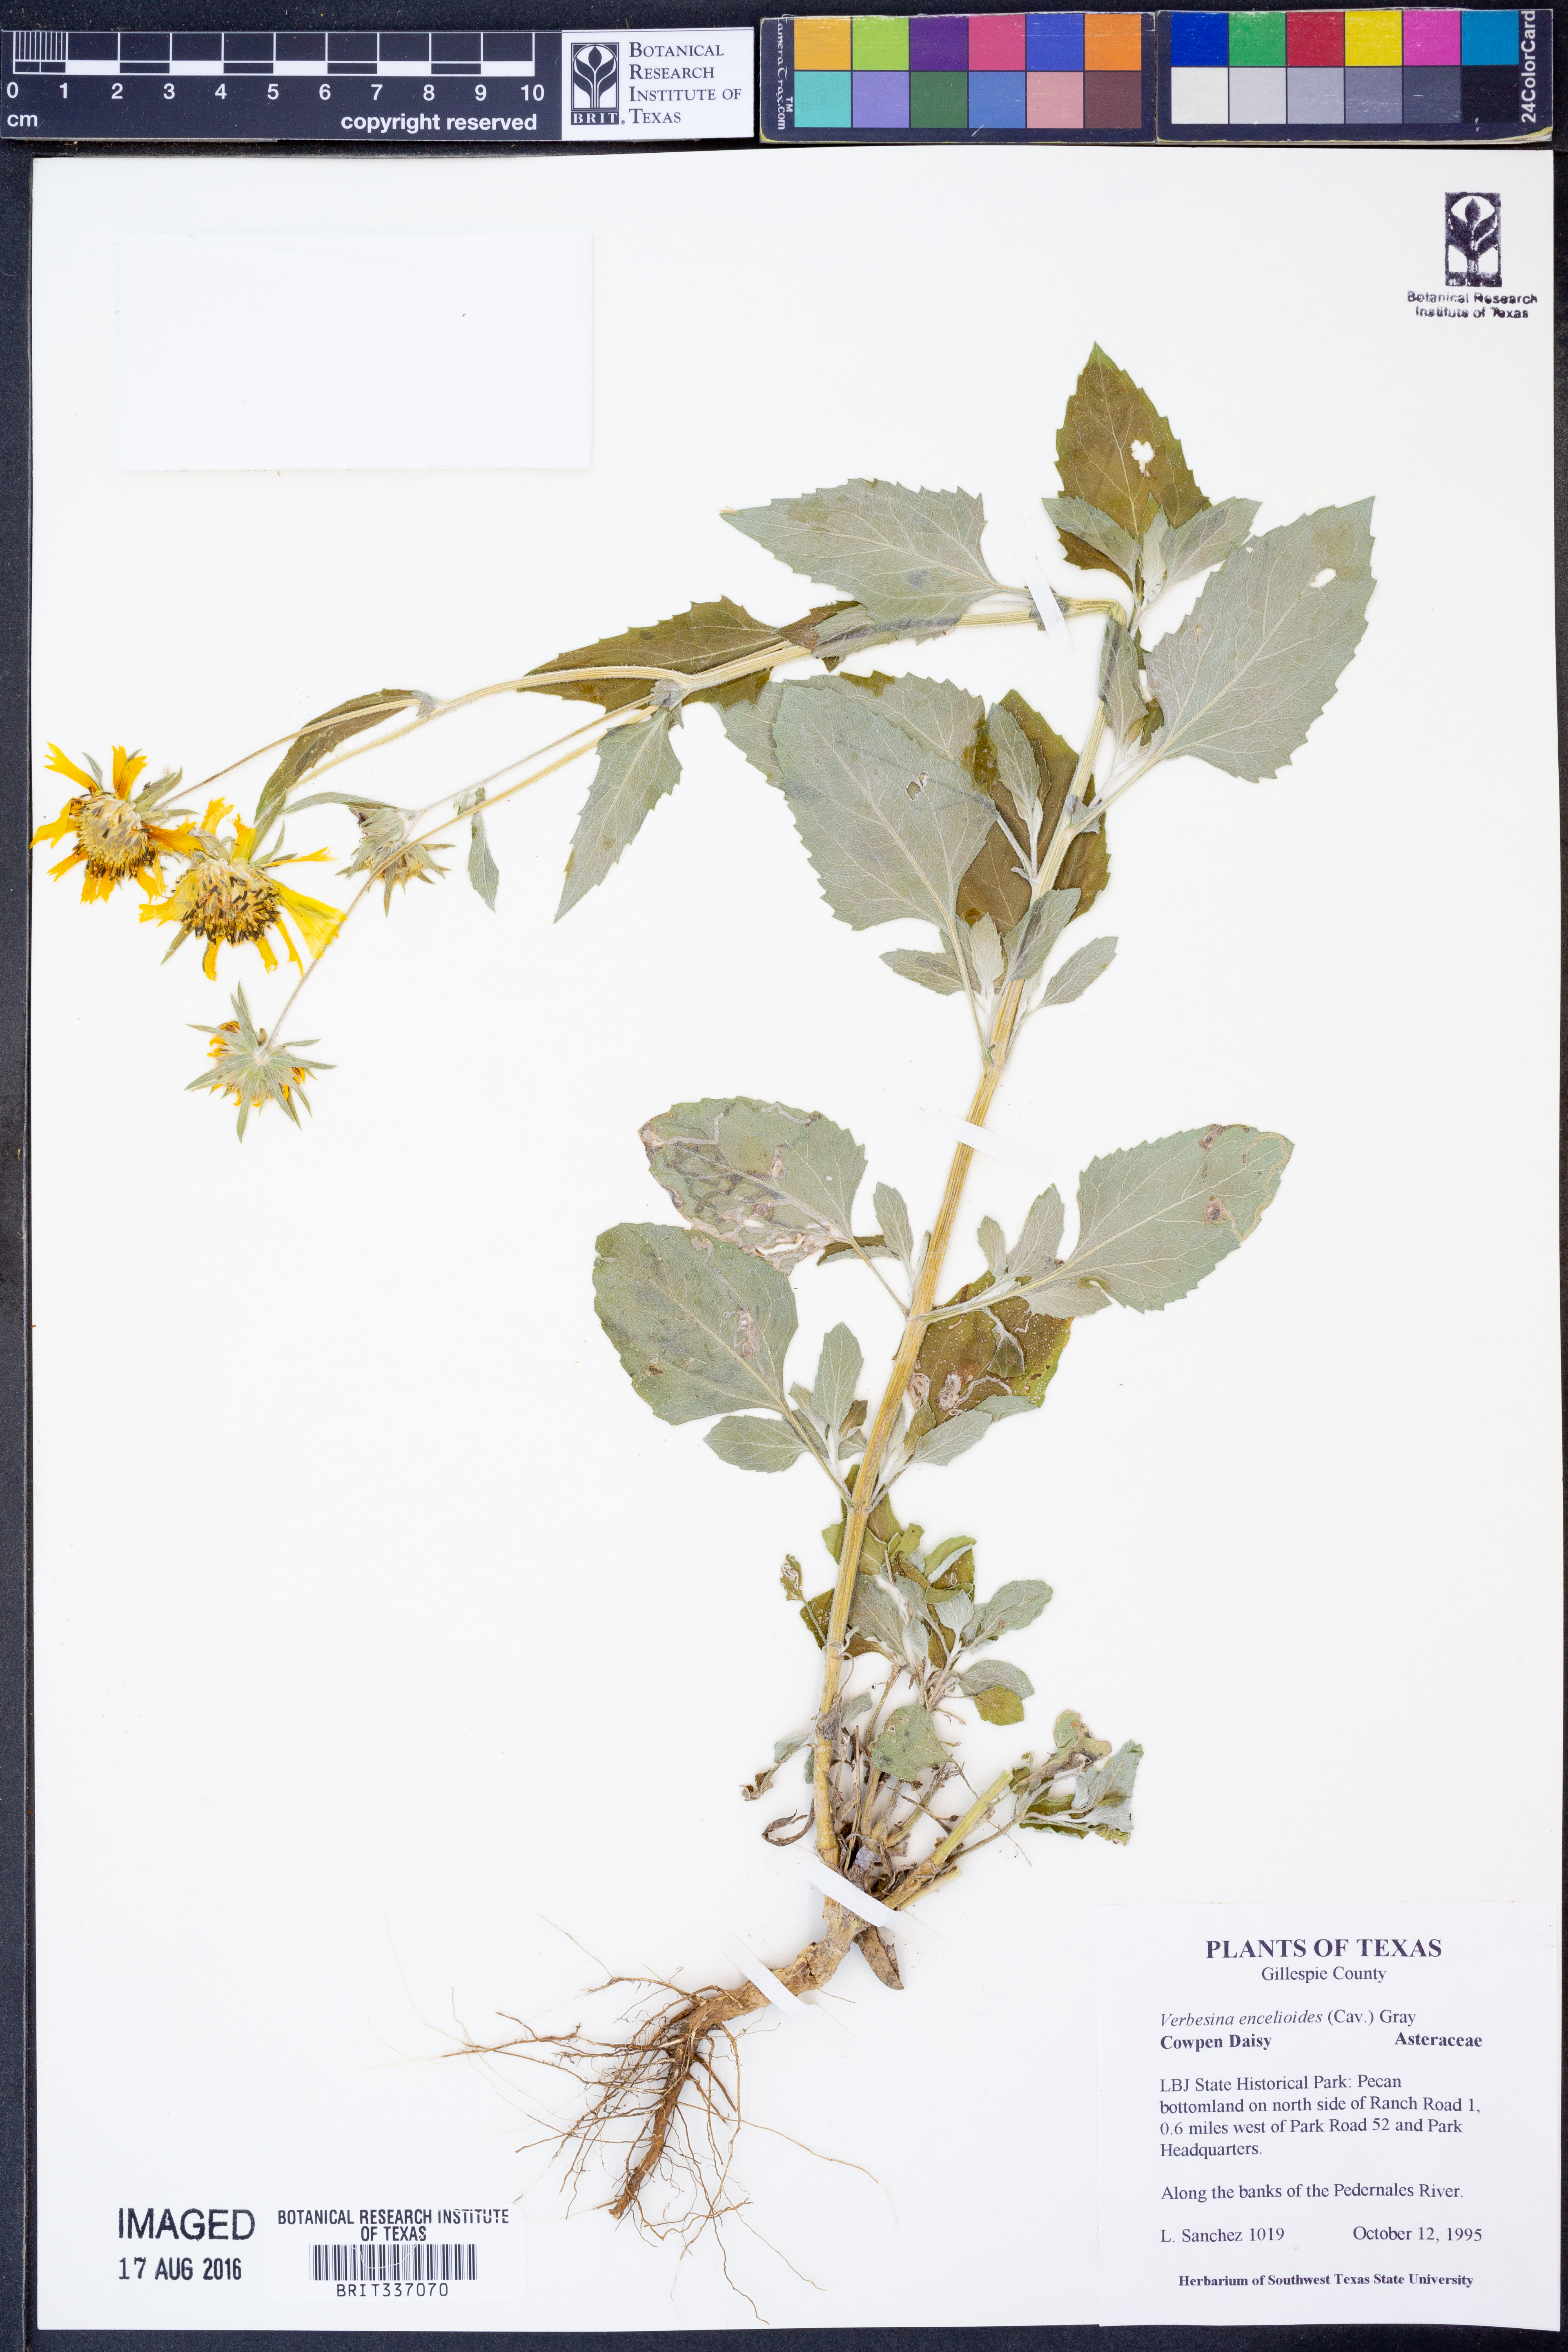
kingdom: Plantae
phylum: Tracheophyta
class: Magnoliopsida
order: Asterales
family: Asteraceae
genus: Verbesina
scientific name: Verbesina encelioides
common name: Golden crownbeard
